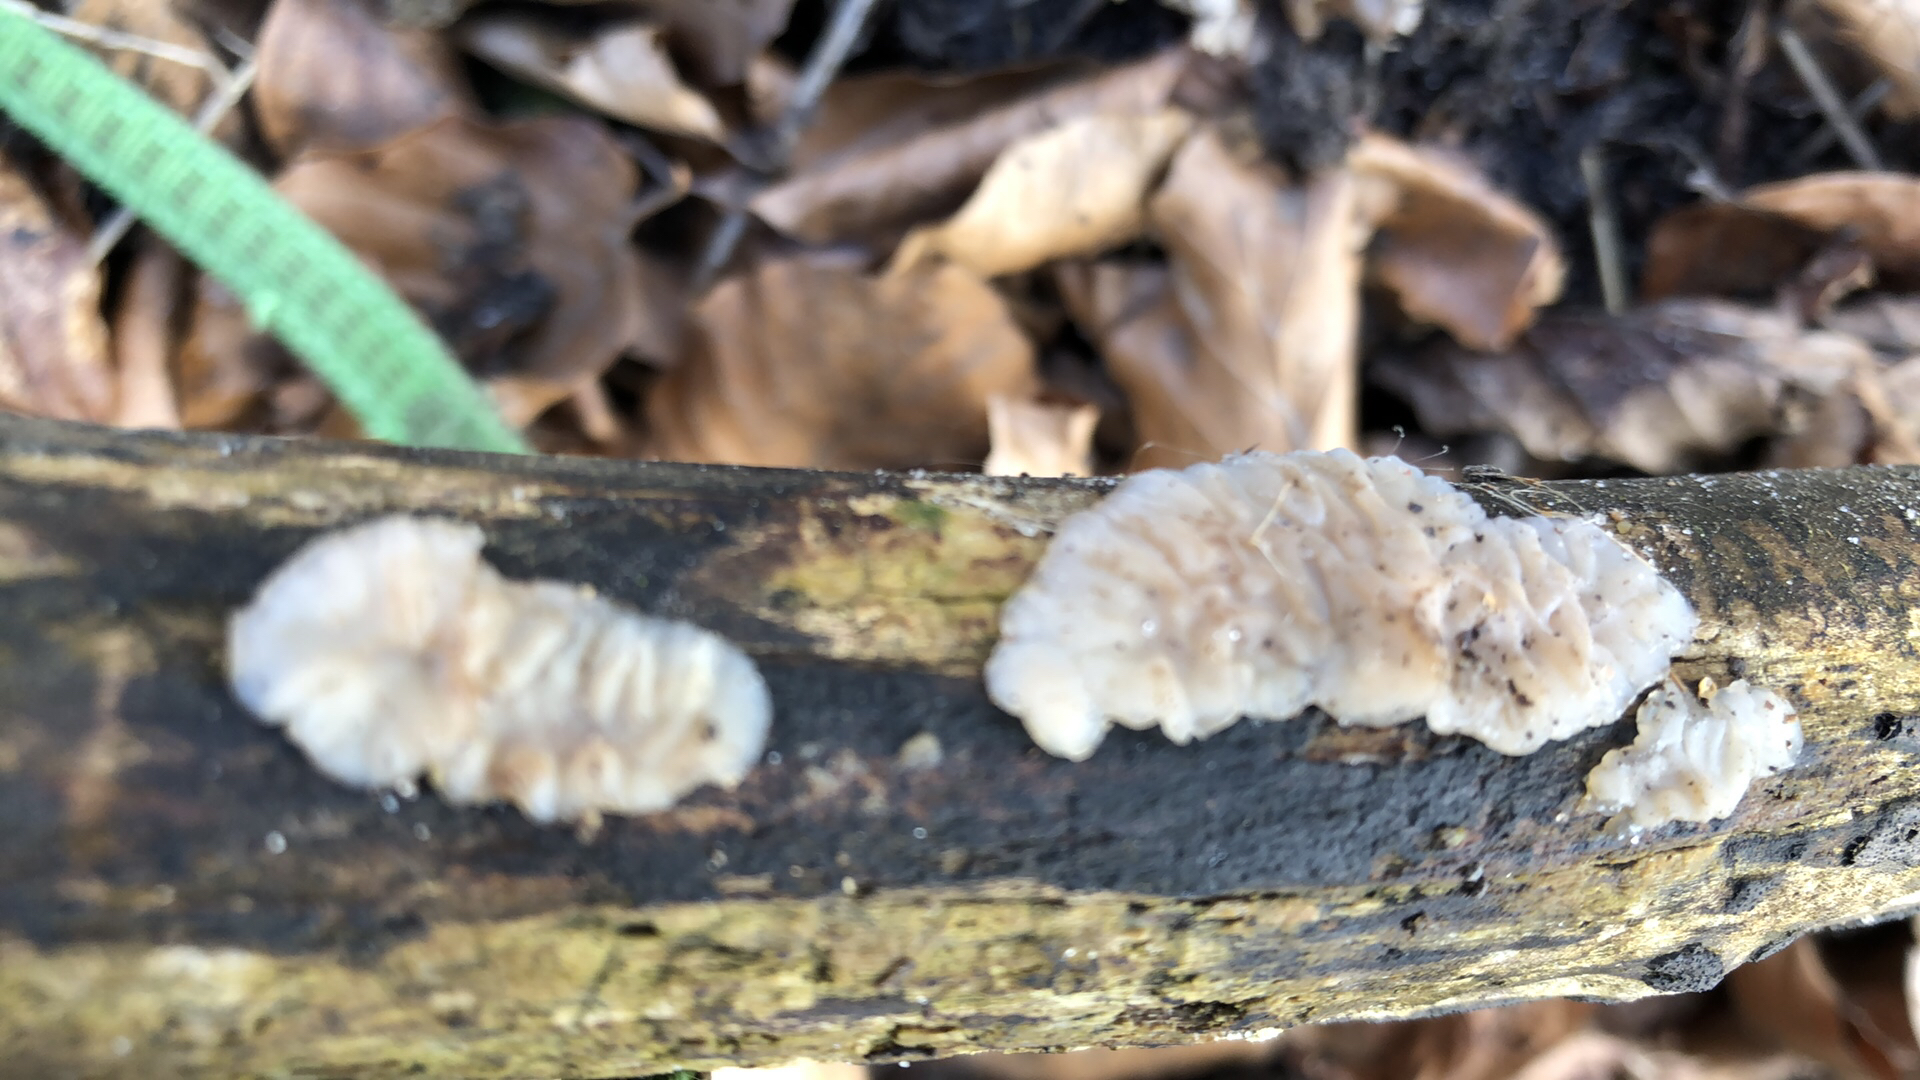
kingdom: Fungi
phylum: Basidiomycota
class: Agaricomycetes
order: Auriculariales
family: Auriculariaceae
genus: Exidia
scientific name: Exidia thuretiana
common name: hvidlig bævretop
